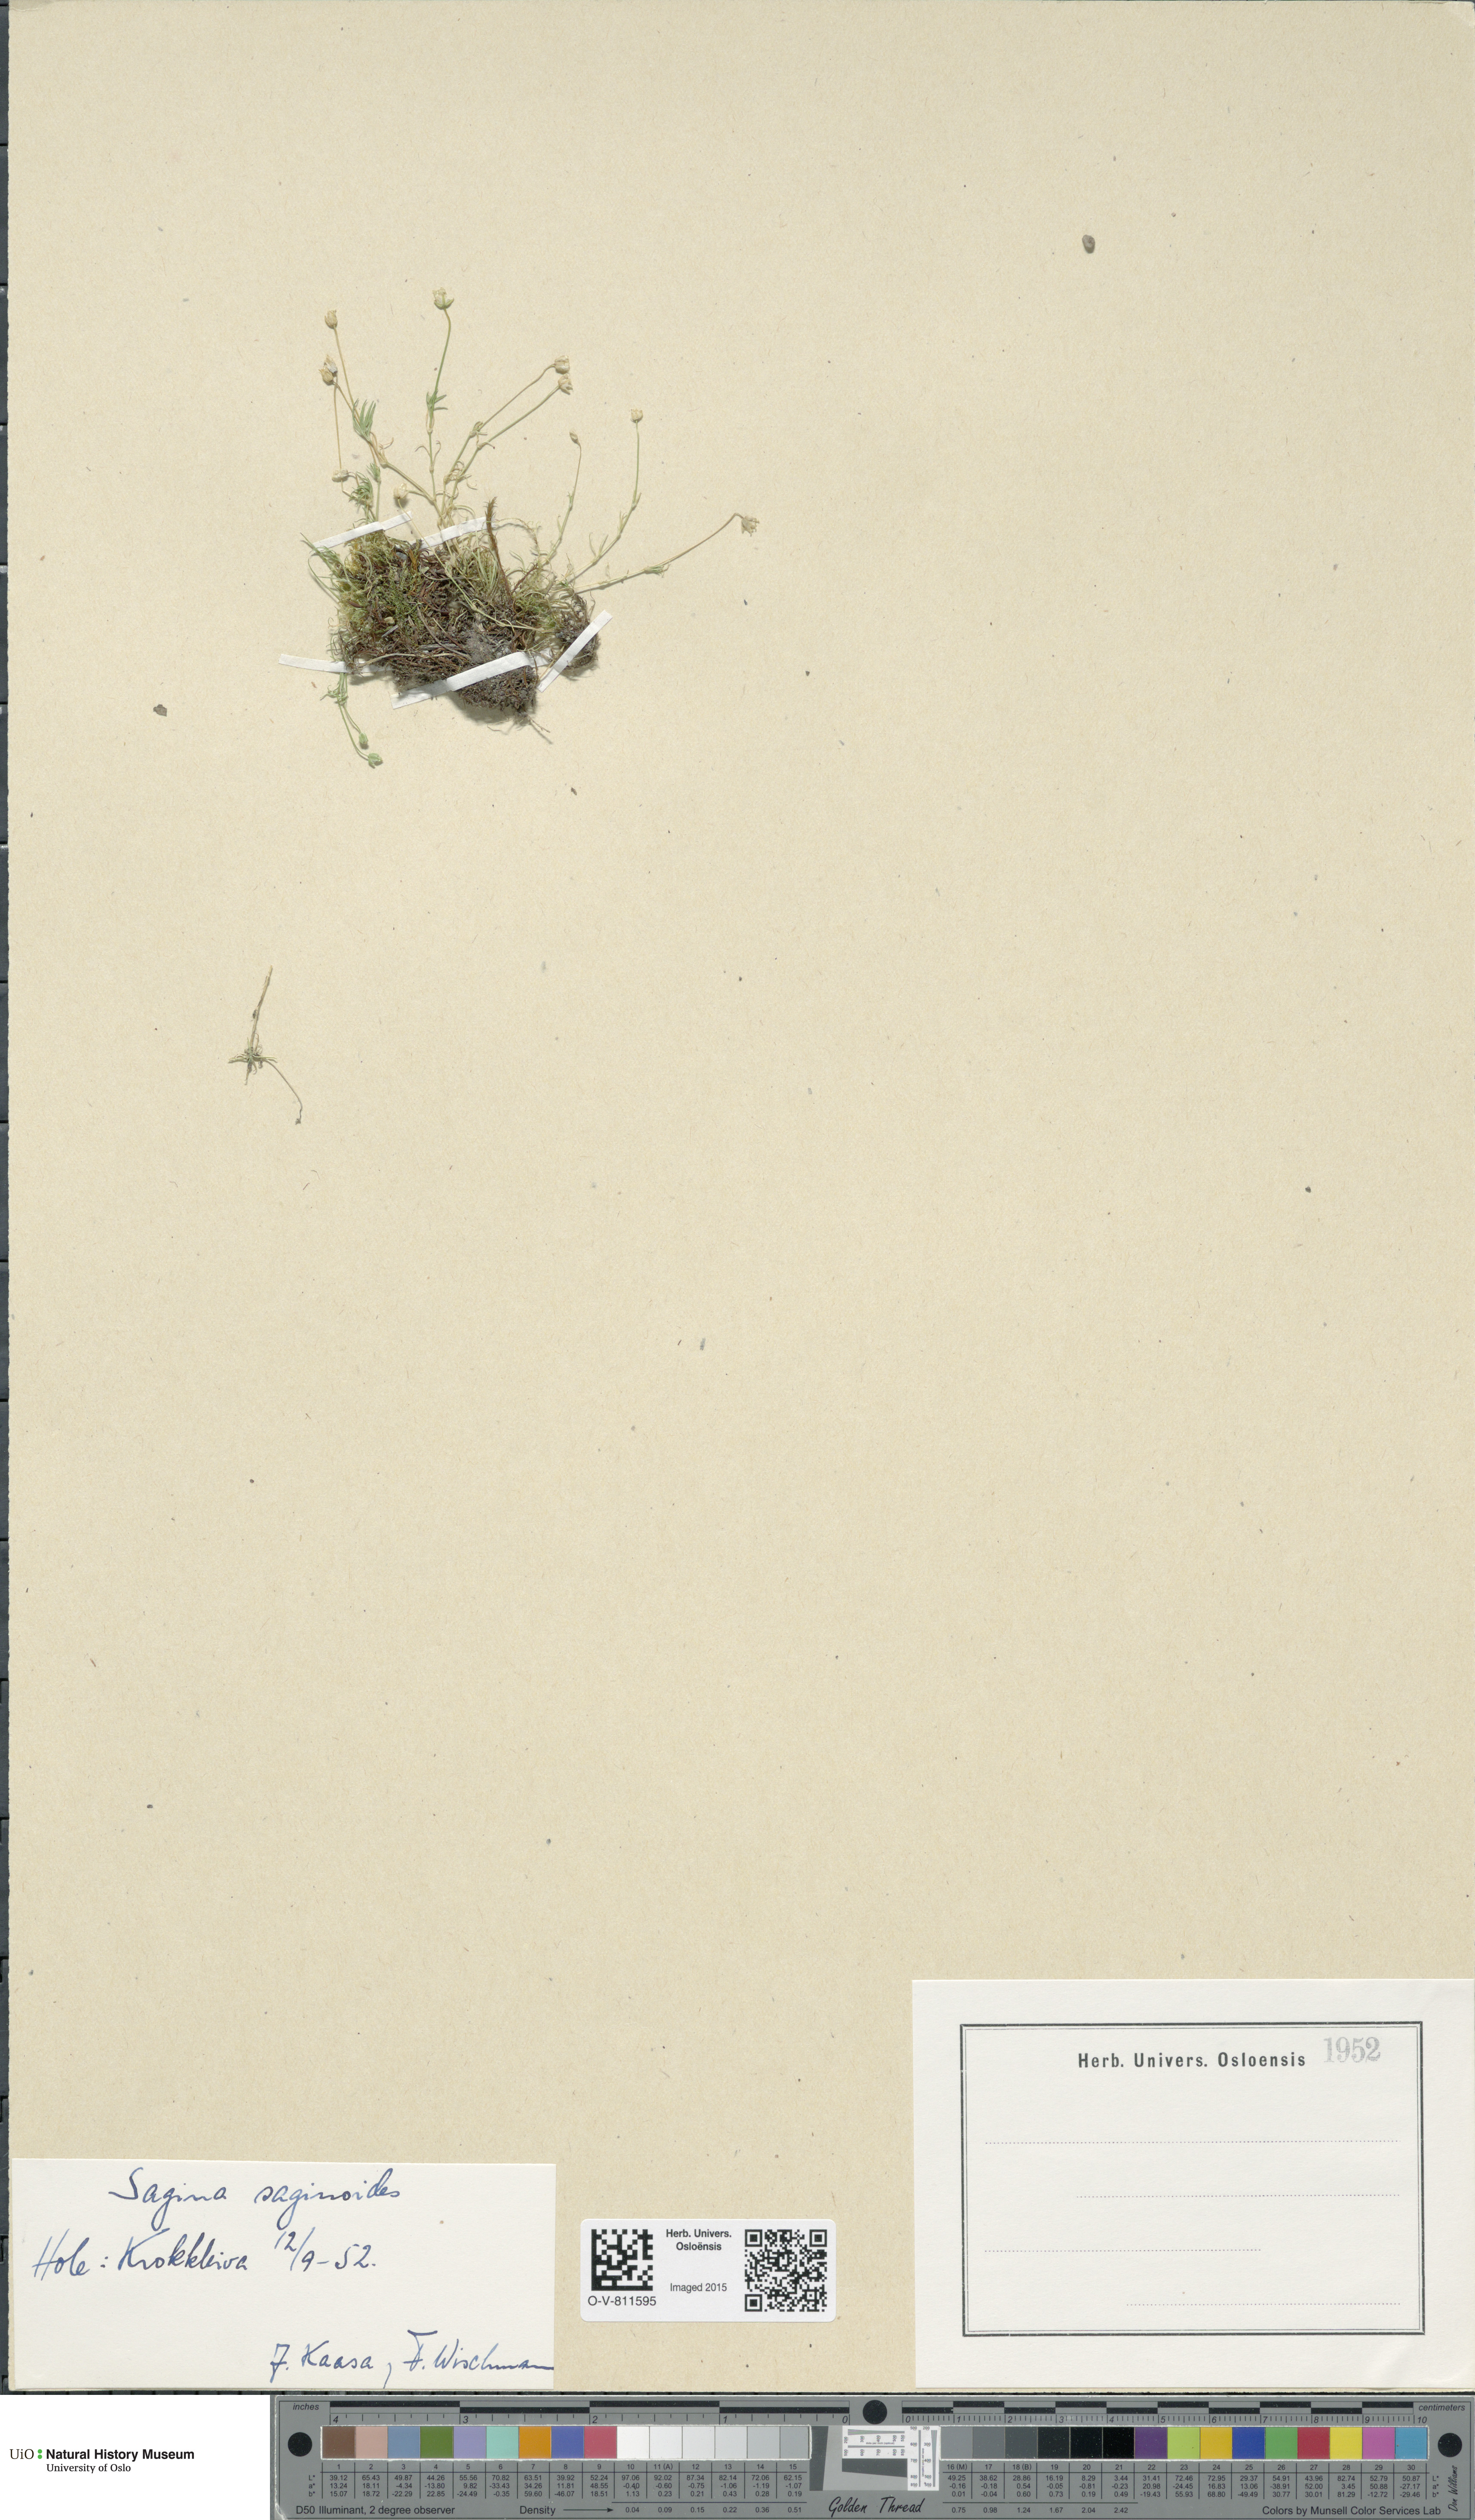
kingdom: Plantae
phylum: Tracheophyta
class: Magnoliopsida
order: Caryophyllales
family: Caryophyllaceae
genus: Sagina
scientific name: Sagina saginoides
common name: Alpine pearlwort
